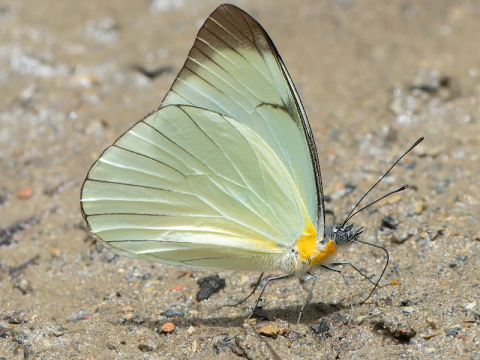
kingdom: Animalia
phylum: Arthropoda
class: Insecta
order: Lepidoptera
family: Pieridae
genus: Melete
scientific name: Melete leucadia
